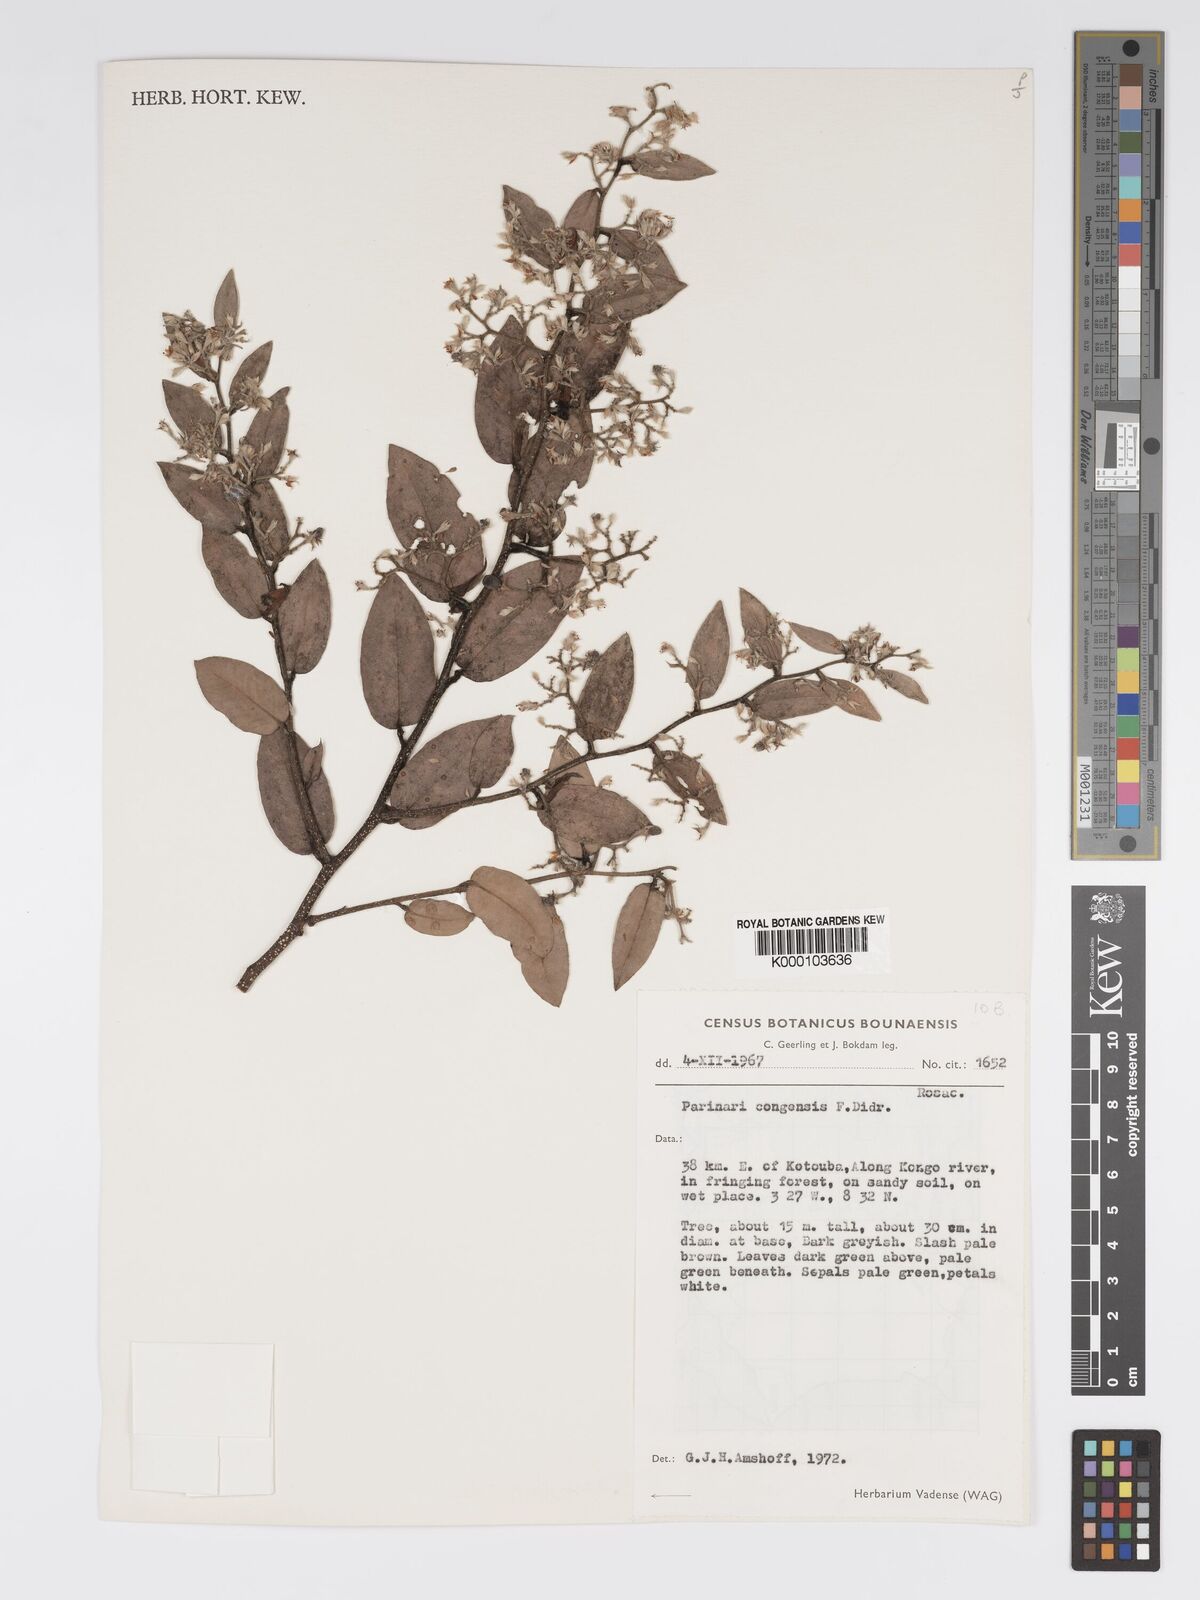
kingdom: Plantae
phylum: Tracheophyta
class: Magnoliopsida
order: Malpighiales
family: Chrysobalanaceae
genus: Parinari
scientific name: Parinari congensis
